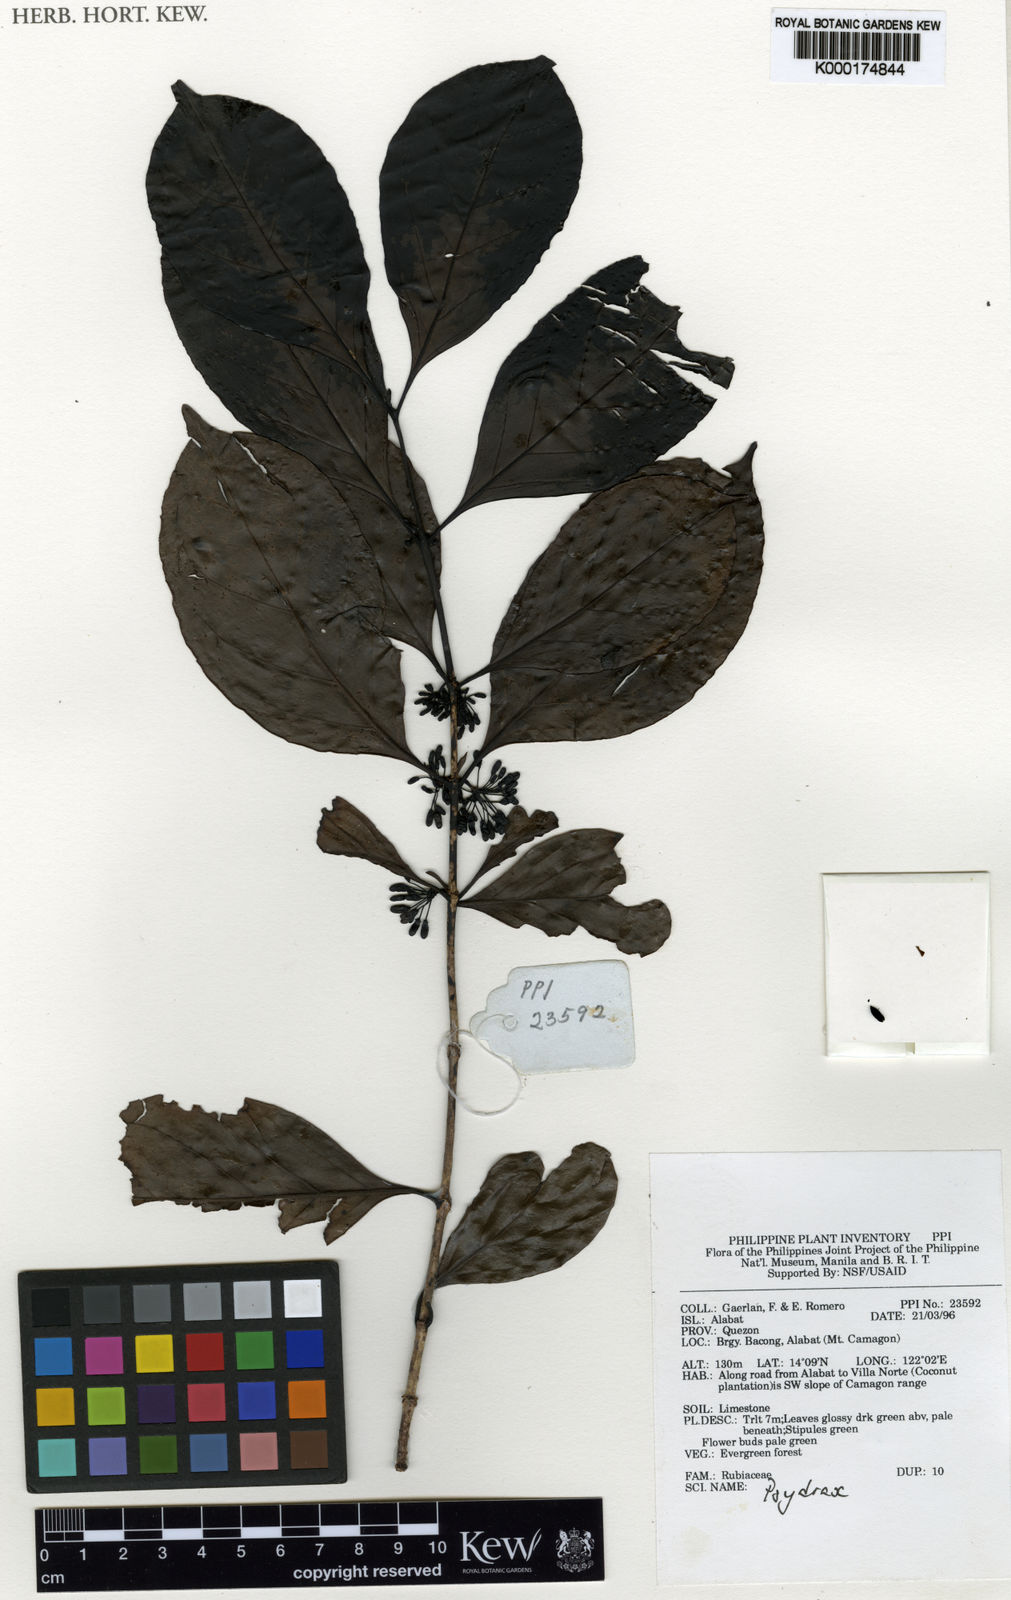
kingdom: Plantae
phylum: Tracheophyta
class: Magnoliopsida
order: Gentianales
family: Rubiaceae
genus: Psydrax
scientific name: Psydrax
